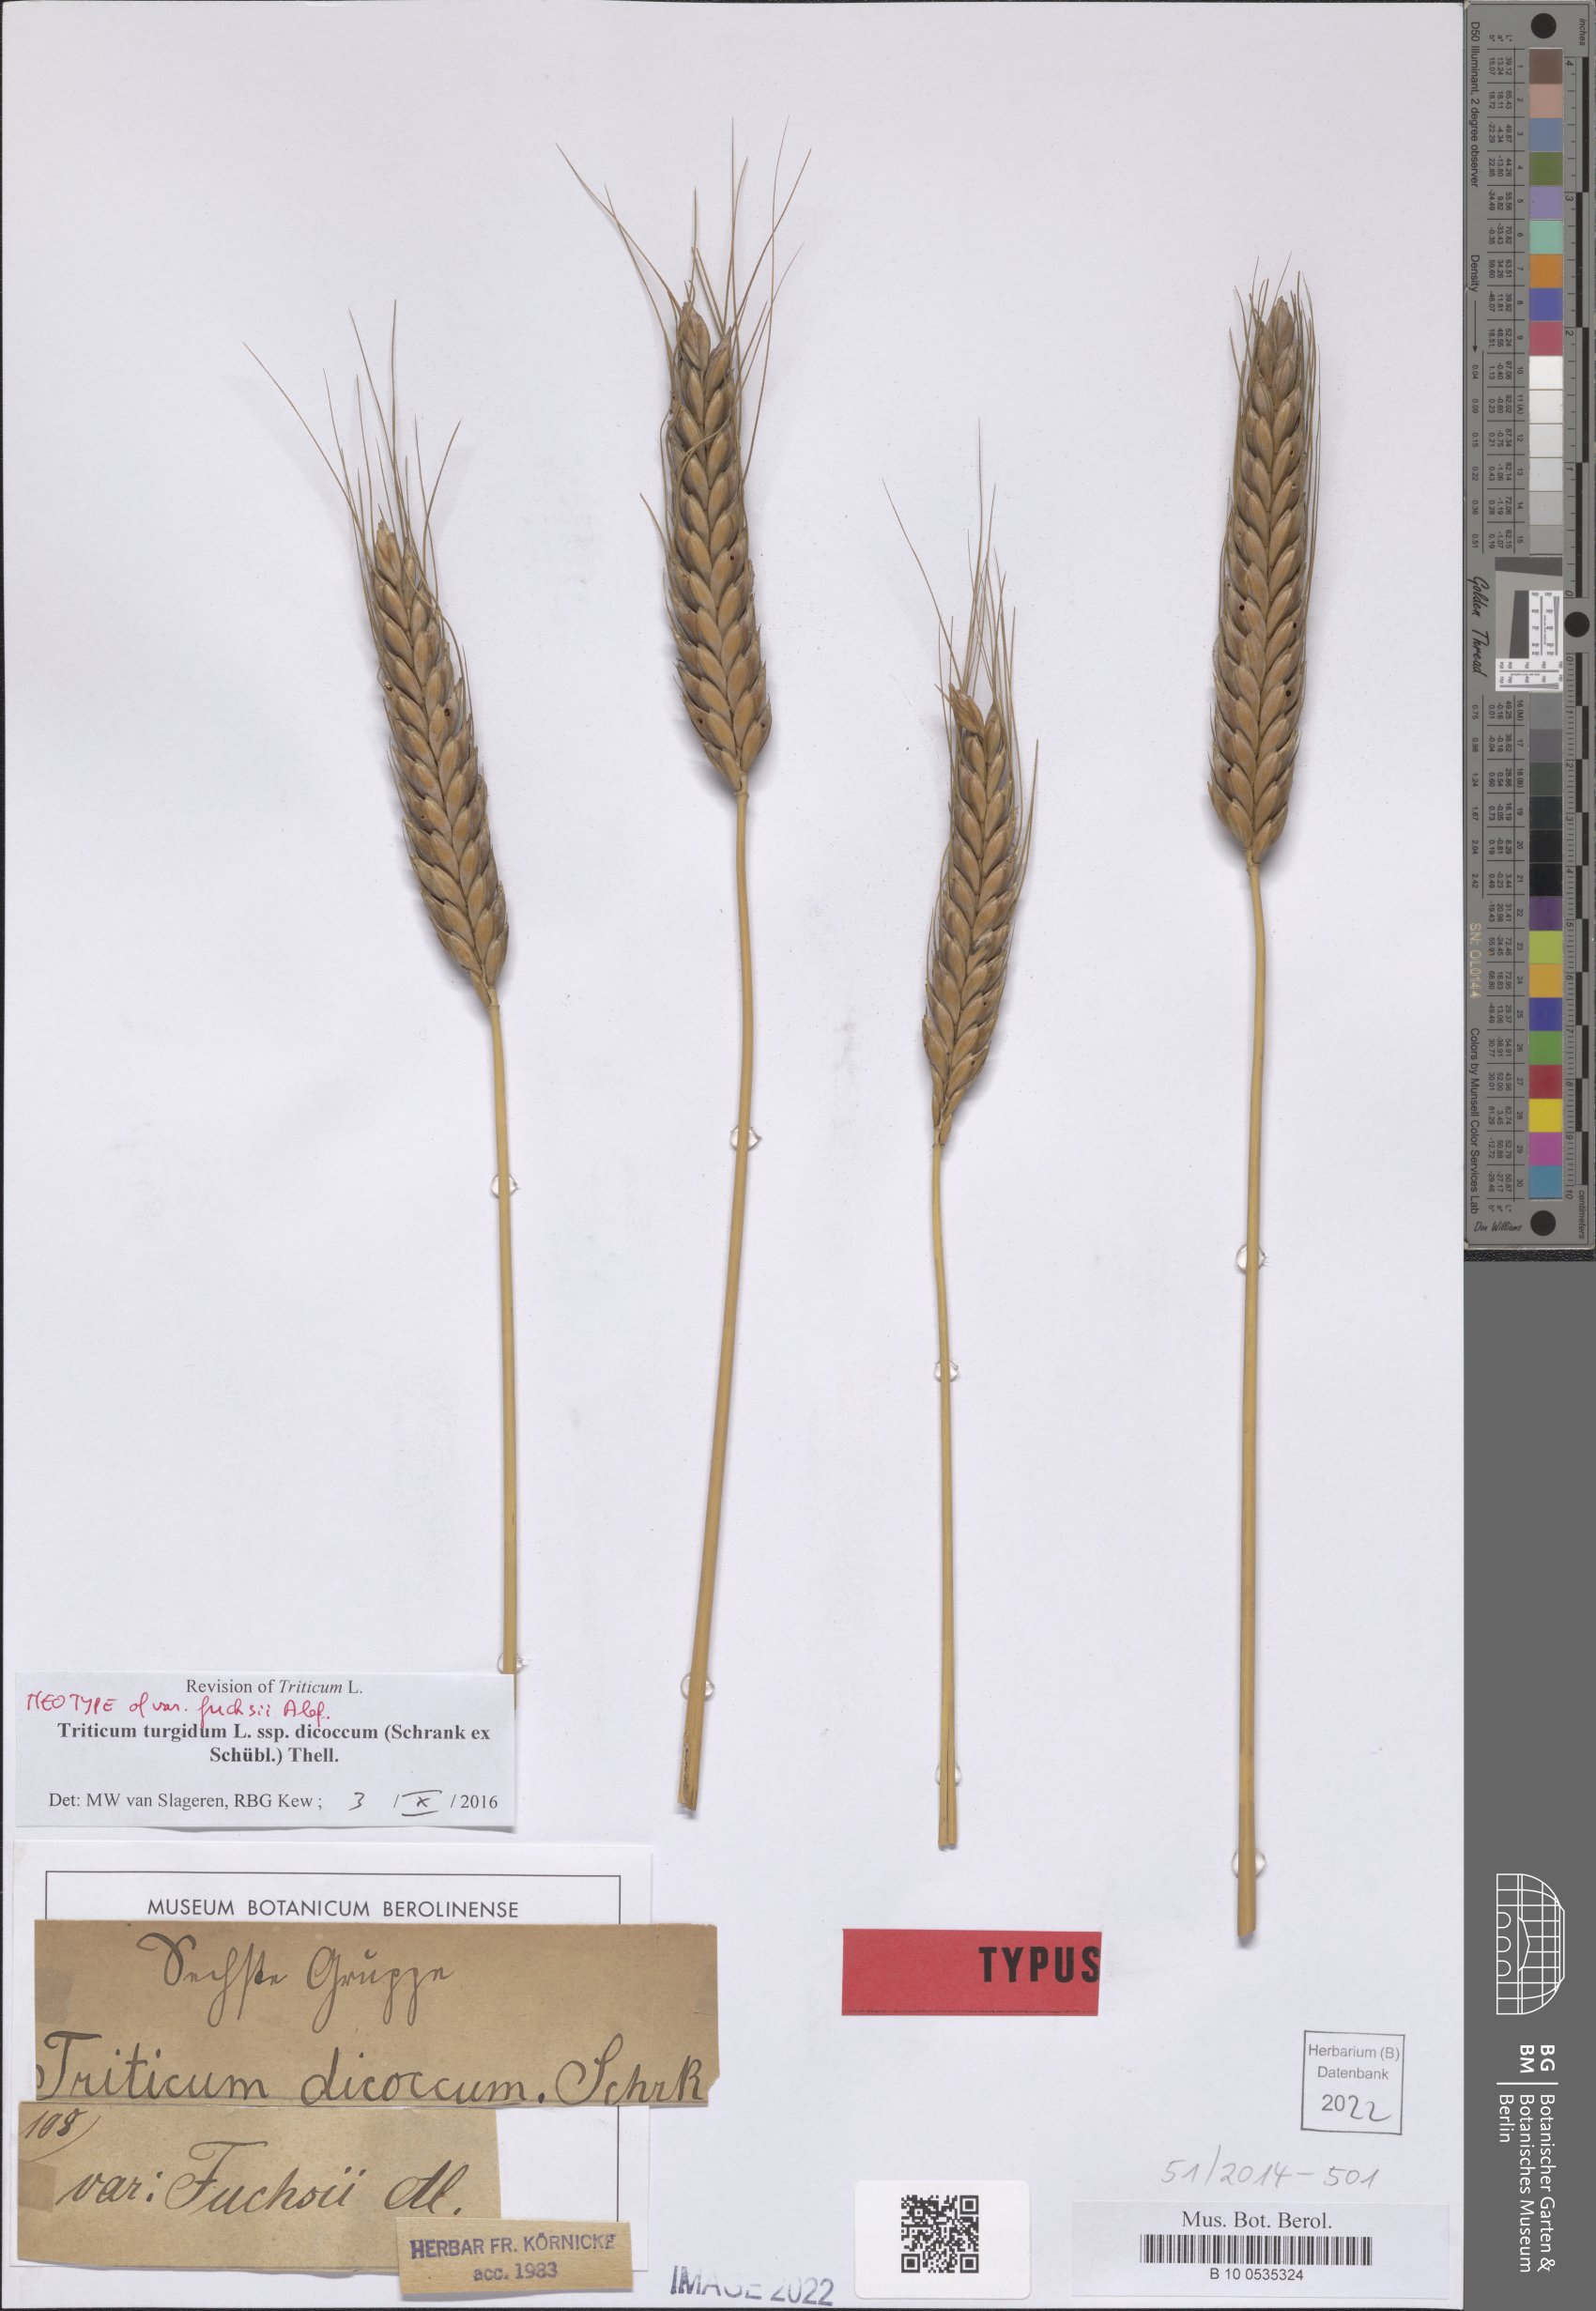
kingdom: Plantae
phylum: Tracheophyta
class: Liliopsida
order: Poales
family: Poaceae
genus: Triticum
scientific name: Triticum turgidum
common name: Rivet wheat
